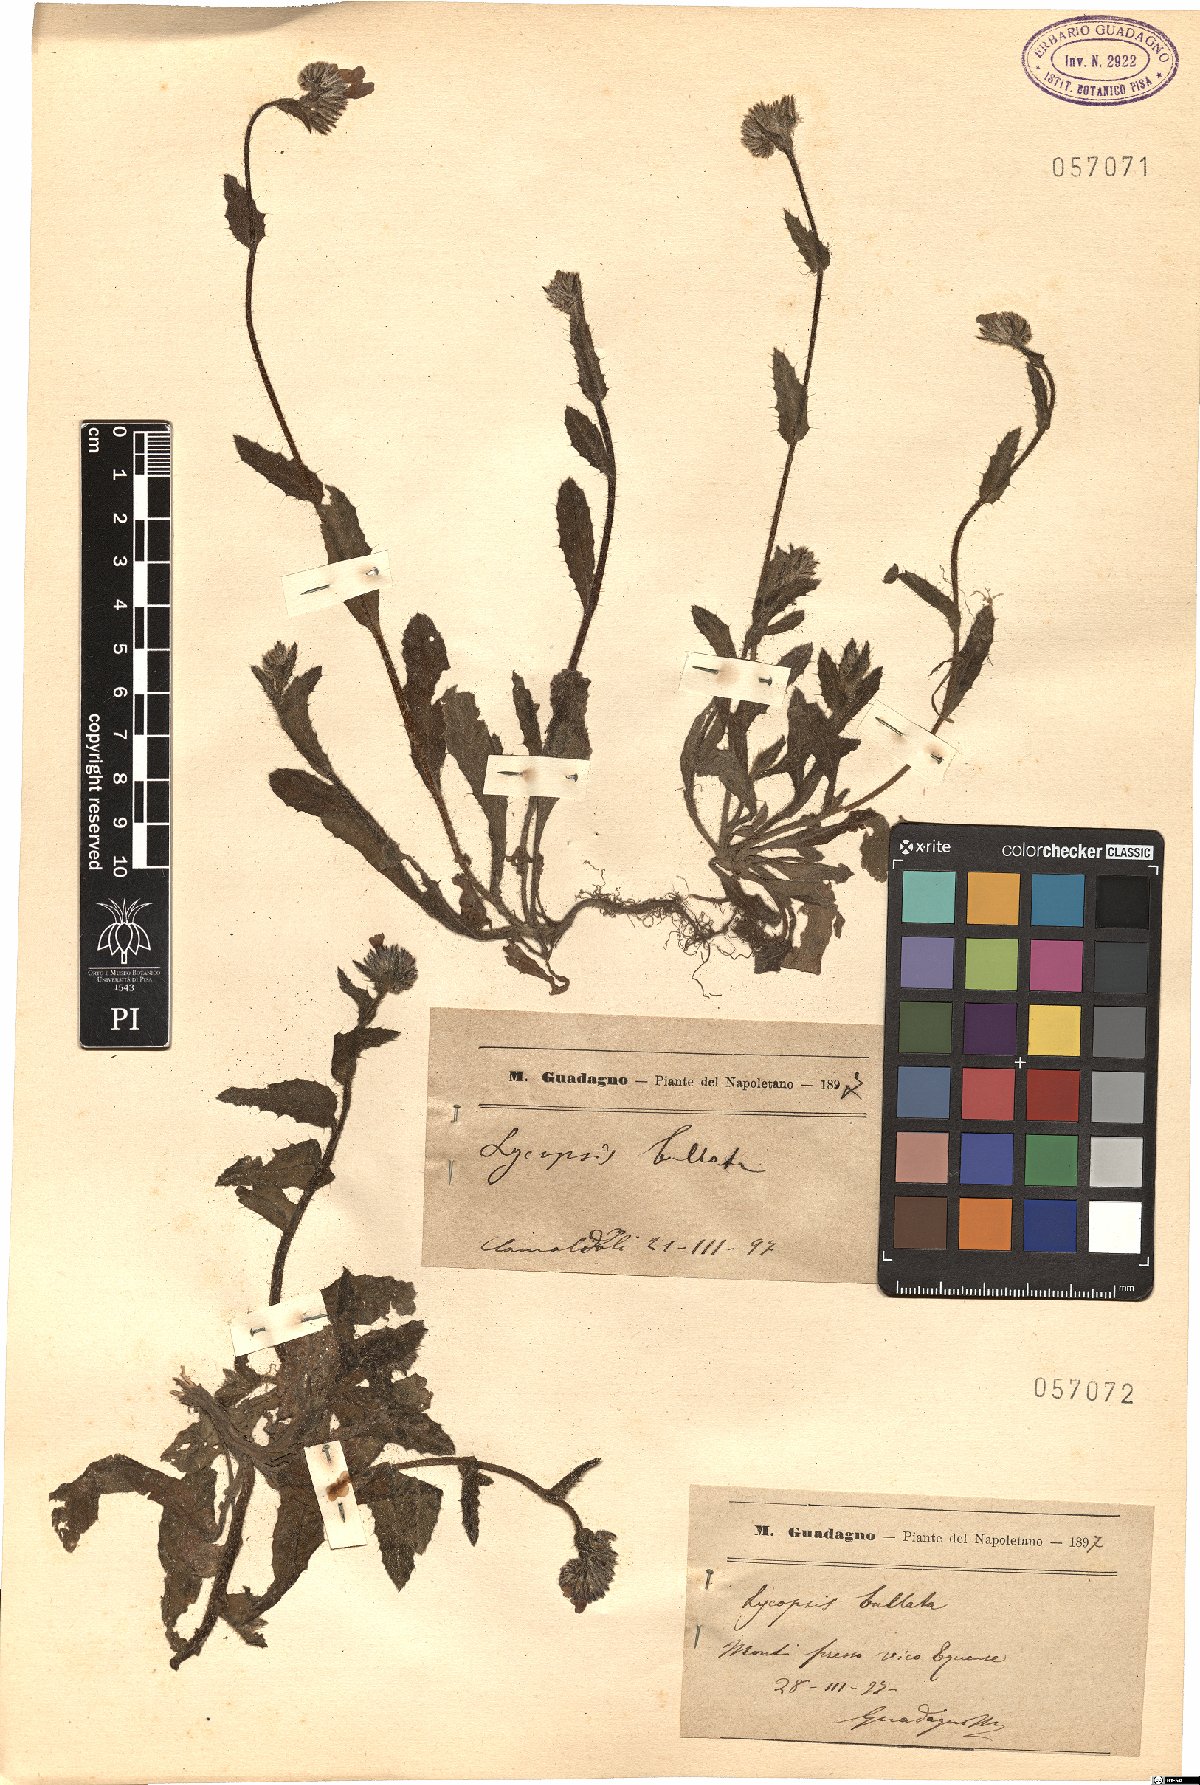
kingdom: Plantae
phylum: Tracheophyta
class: Magnoliopsida
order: Boraginales
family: Boraginaceae
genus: Anchusella
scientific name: Anchusella variegata
